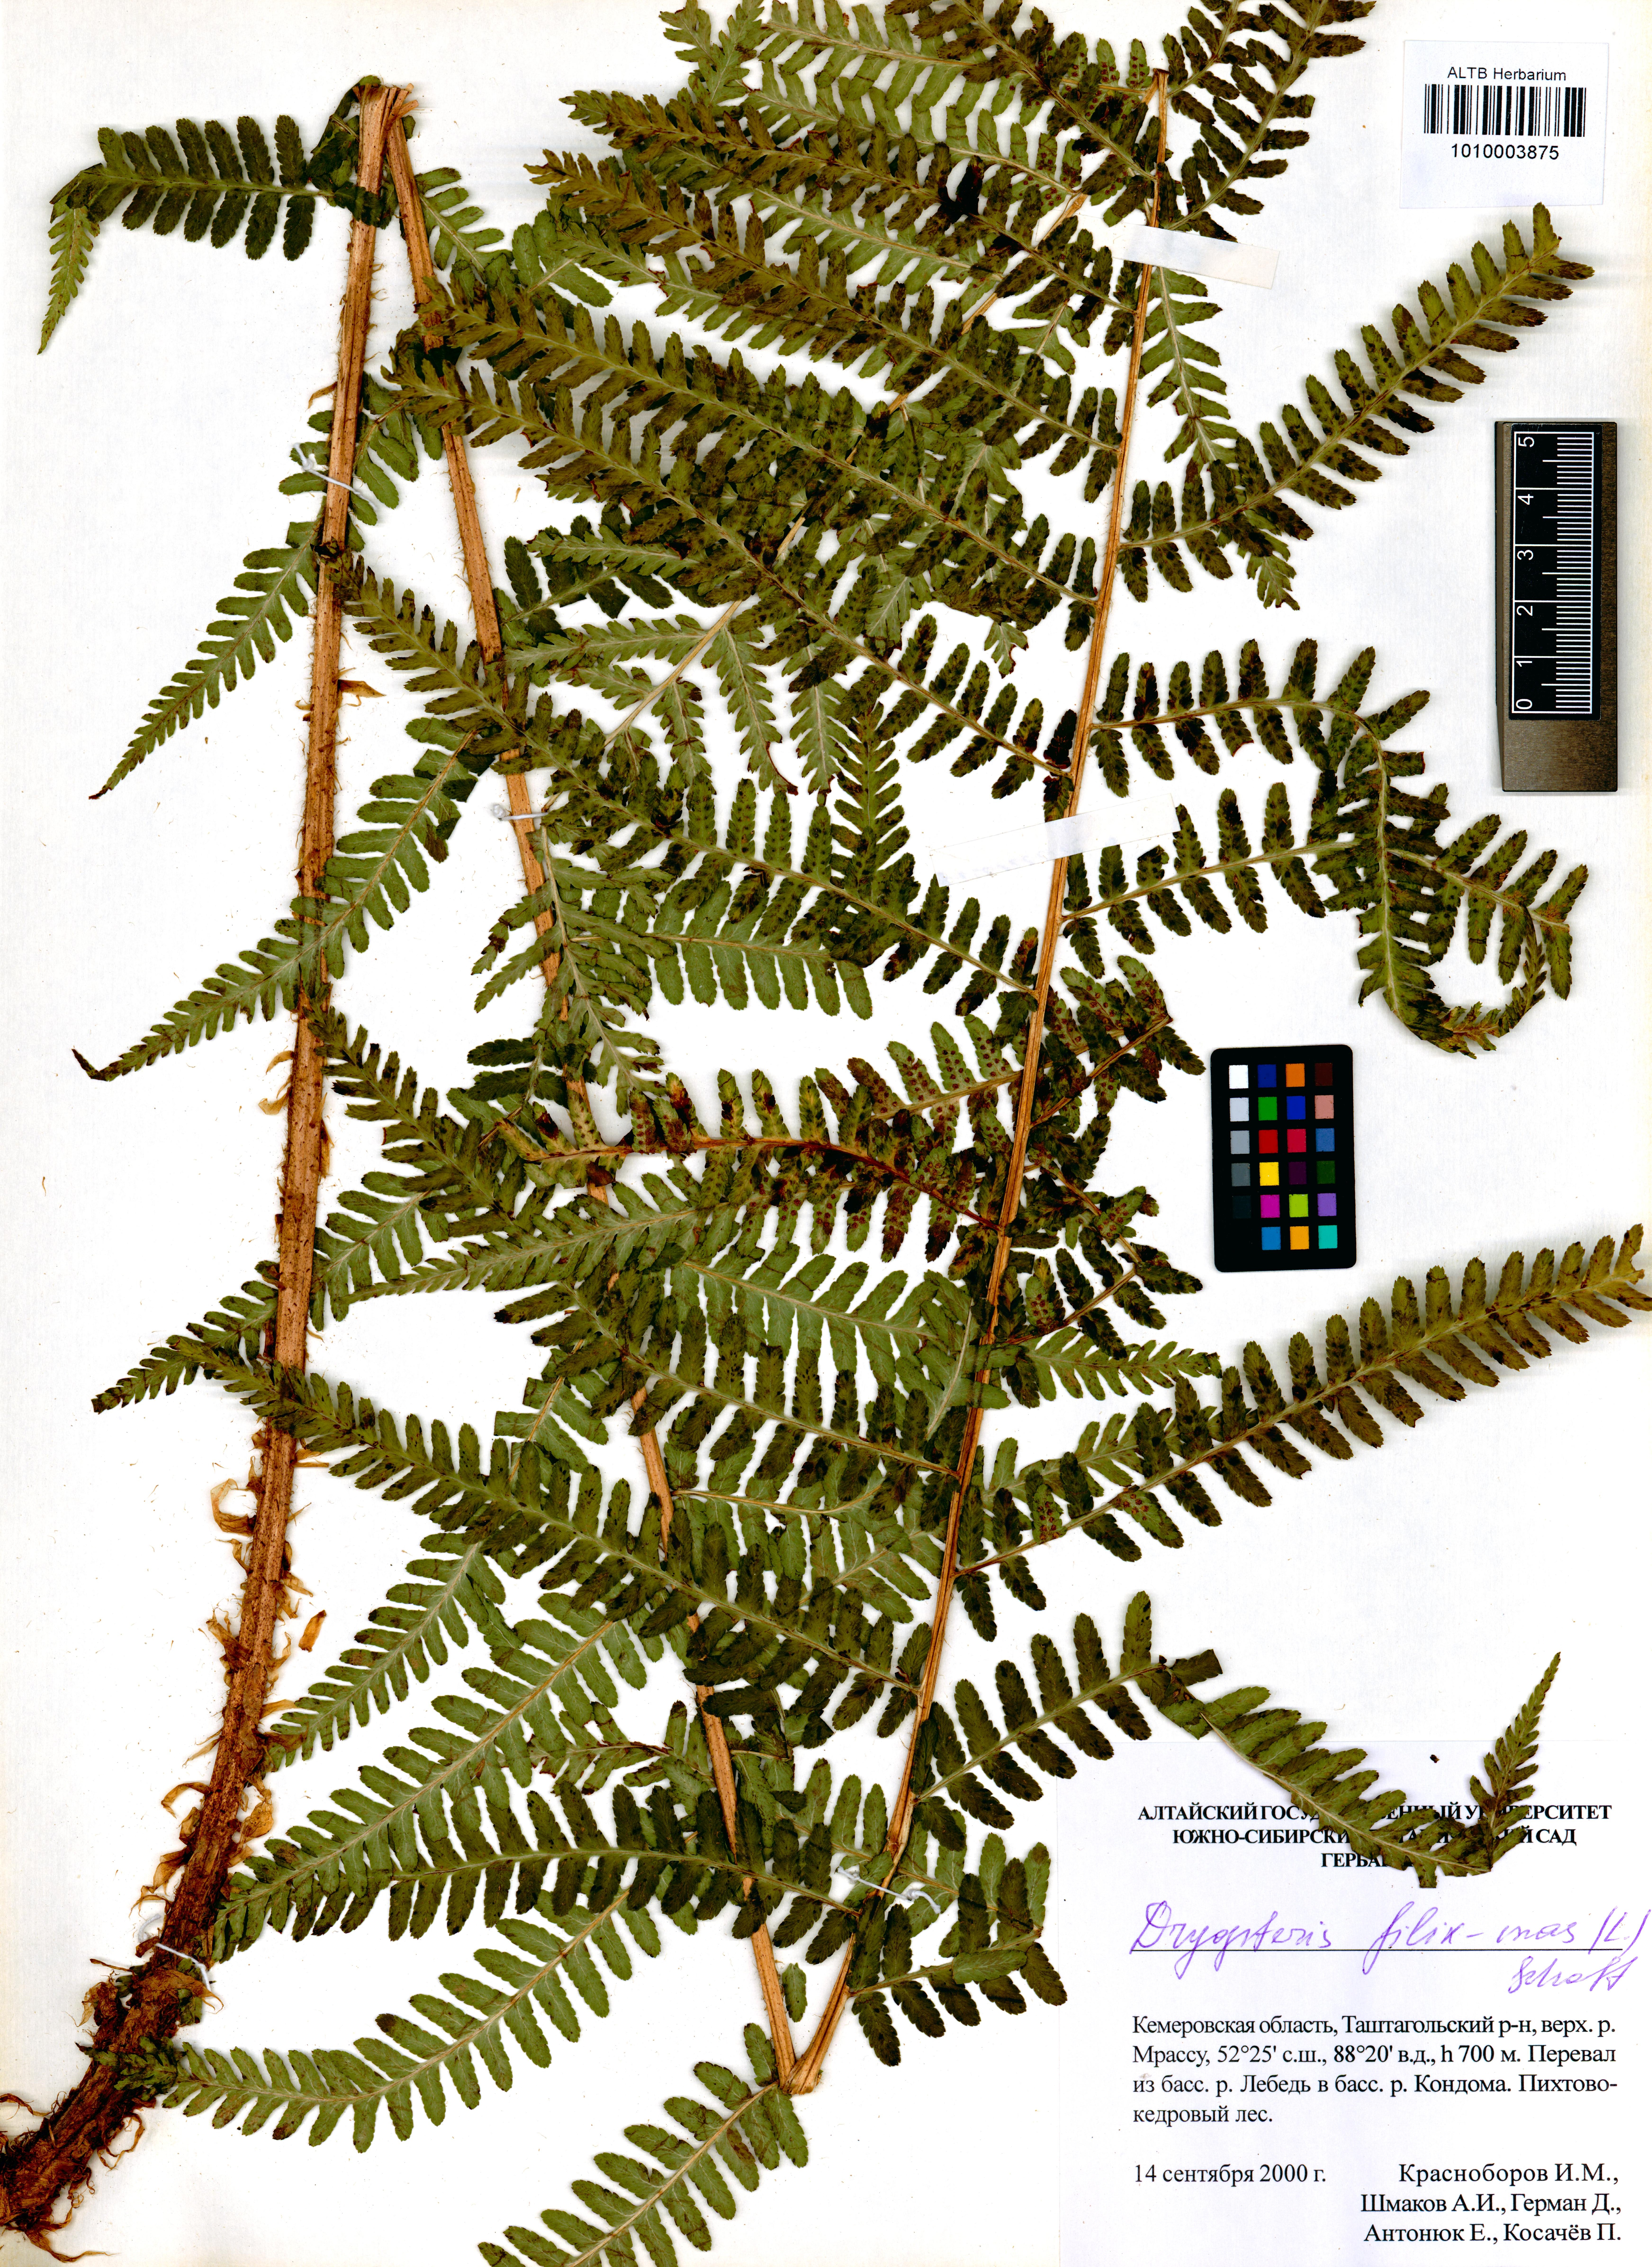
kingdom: Plantae
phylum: Tracheophyta
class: Polypodiopsida
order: Polypodiales
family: Dryopteridaceae
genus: Dryopteris
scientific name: Dryopteris filix-mas
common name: Male fern
